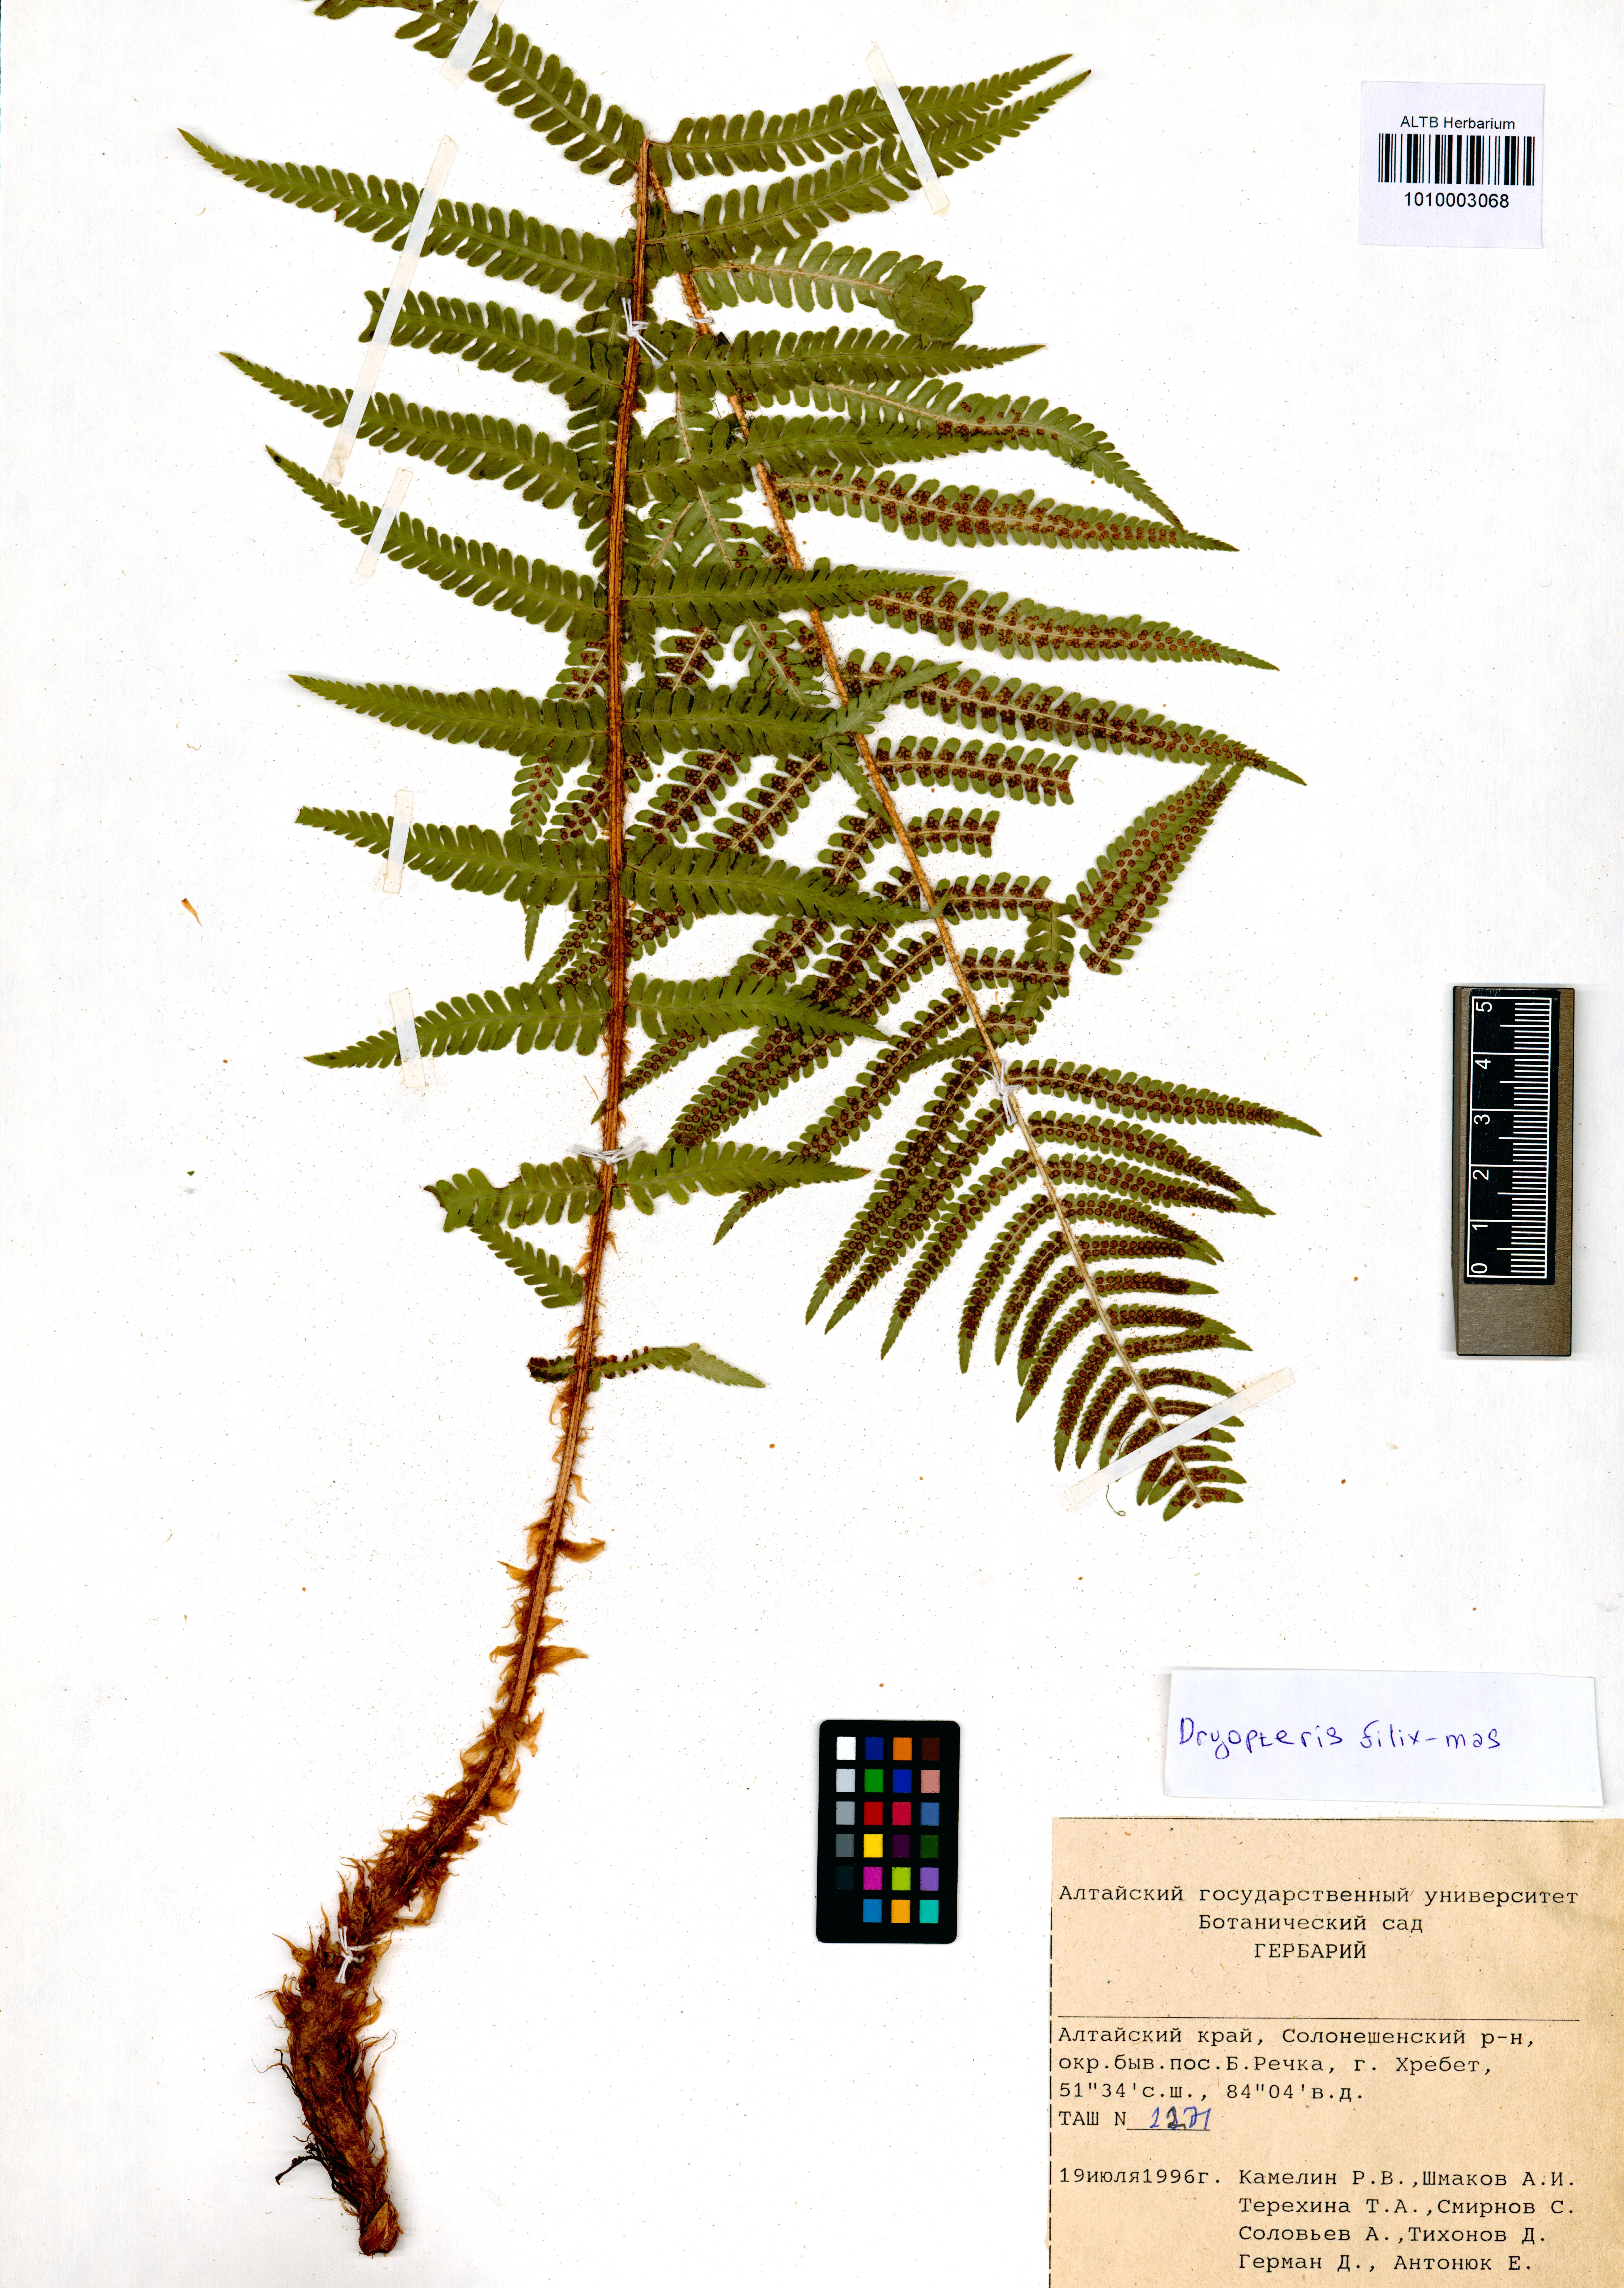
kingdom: Plantae
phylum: Tracheophyta
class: Polypodiopsida
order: Polypodiales
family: Dryopteridaceae
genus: Dryopteris
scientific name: Dryopteris filix-mas
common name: Male fern
